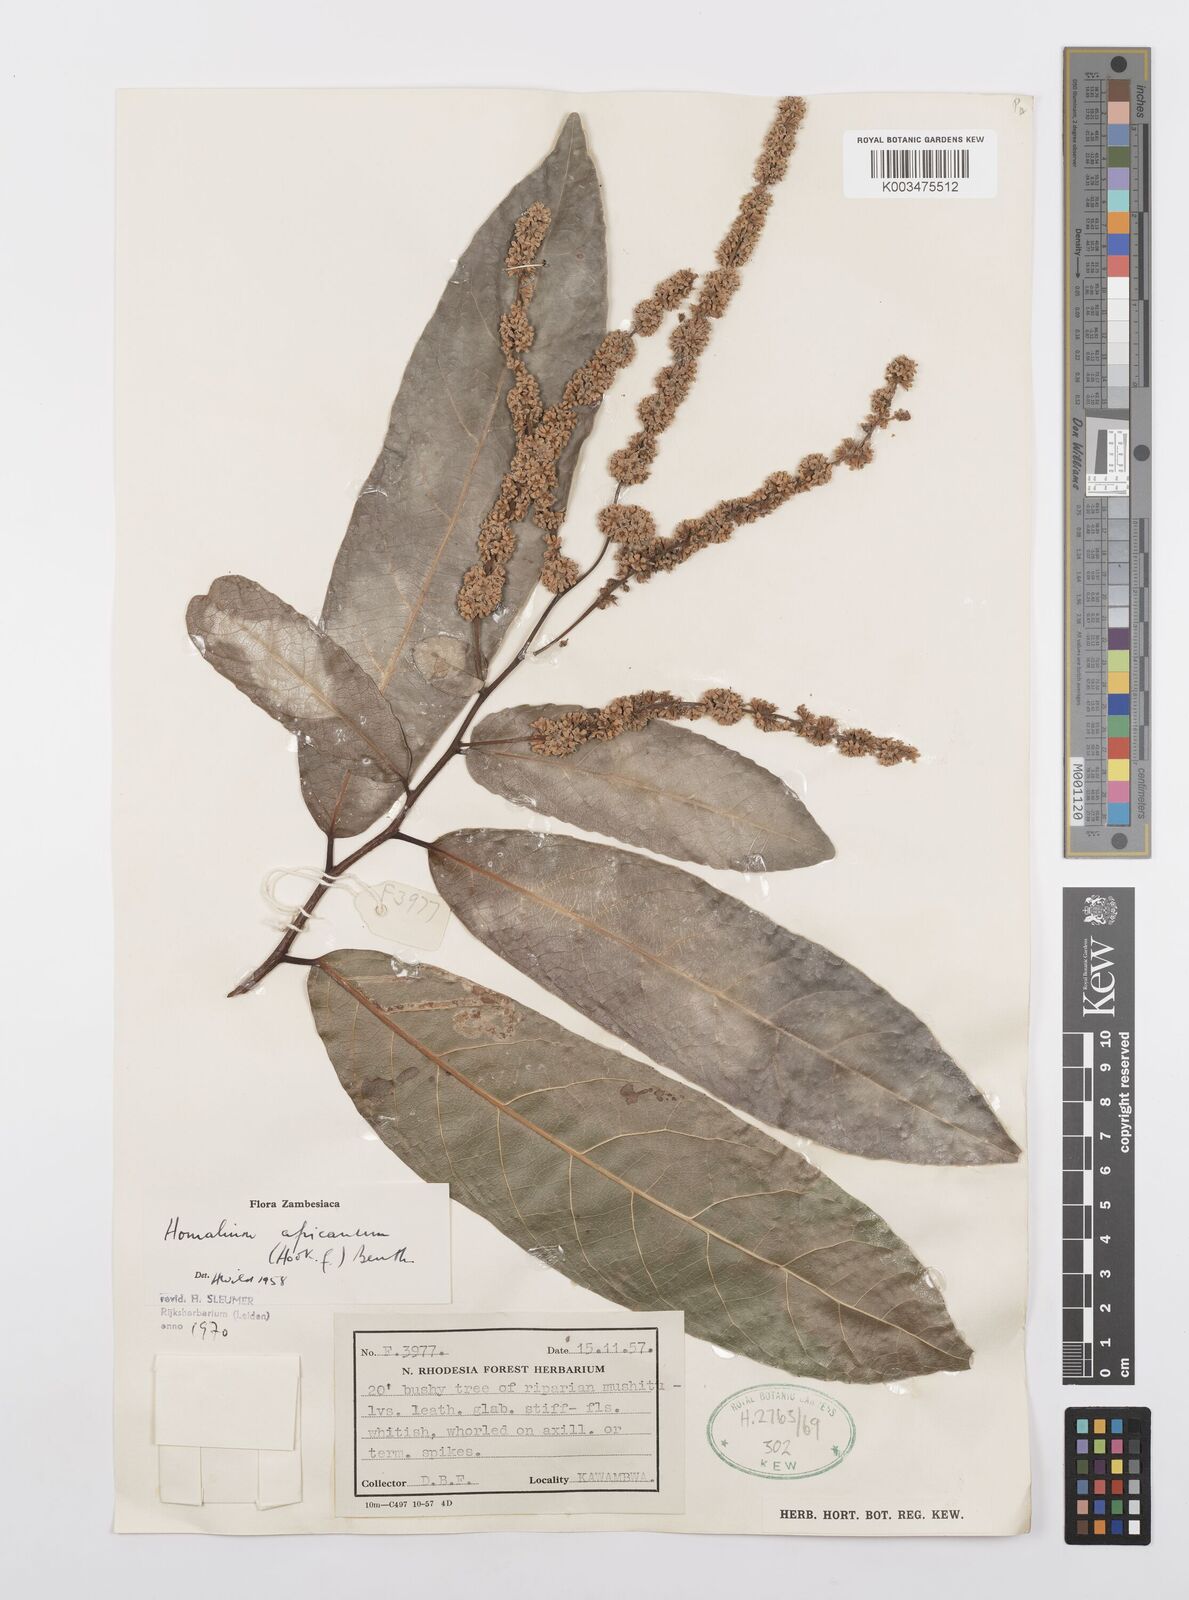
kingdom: Plantae
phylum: Tracheophyta
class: Magnoliopsida
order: Malpighiales
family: Salicaceae
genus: Homalium
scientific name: Homalium africanum
